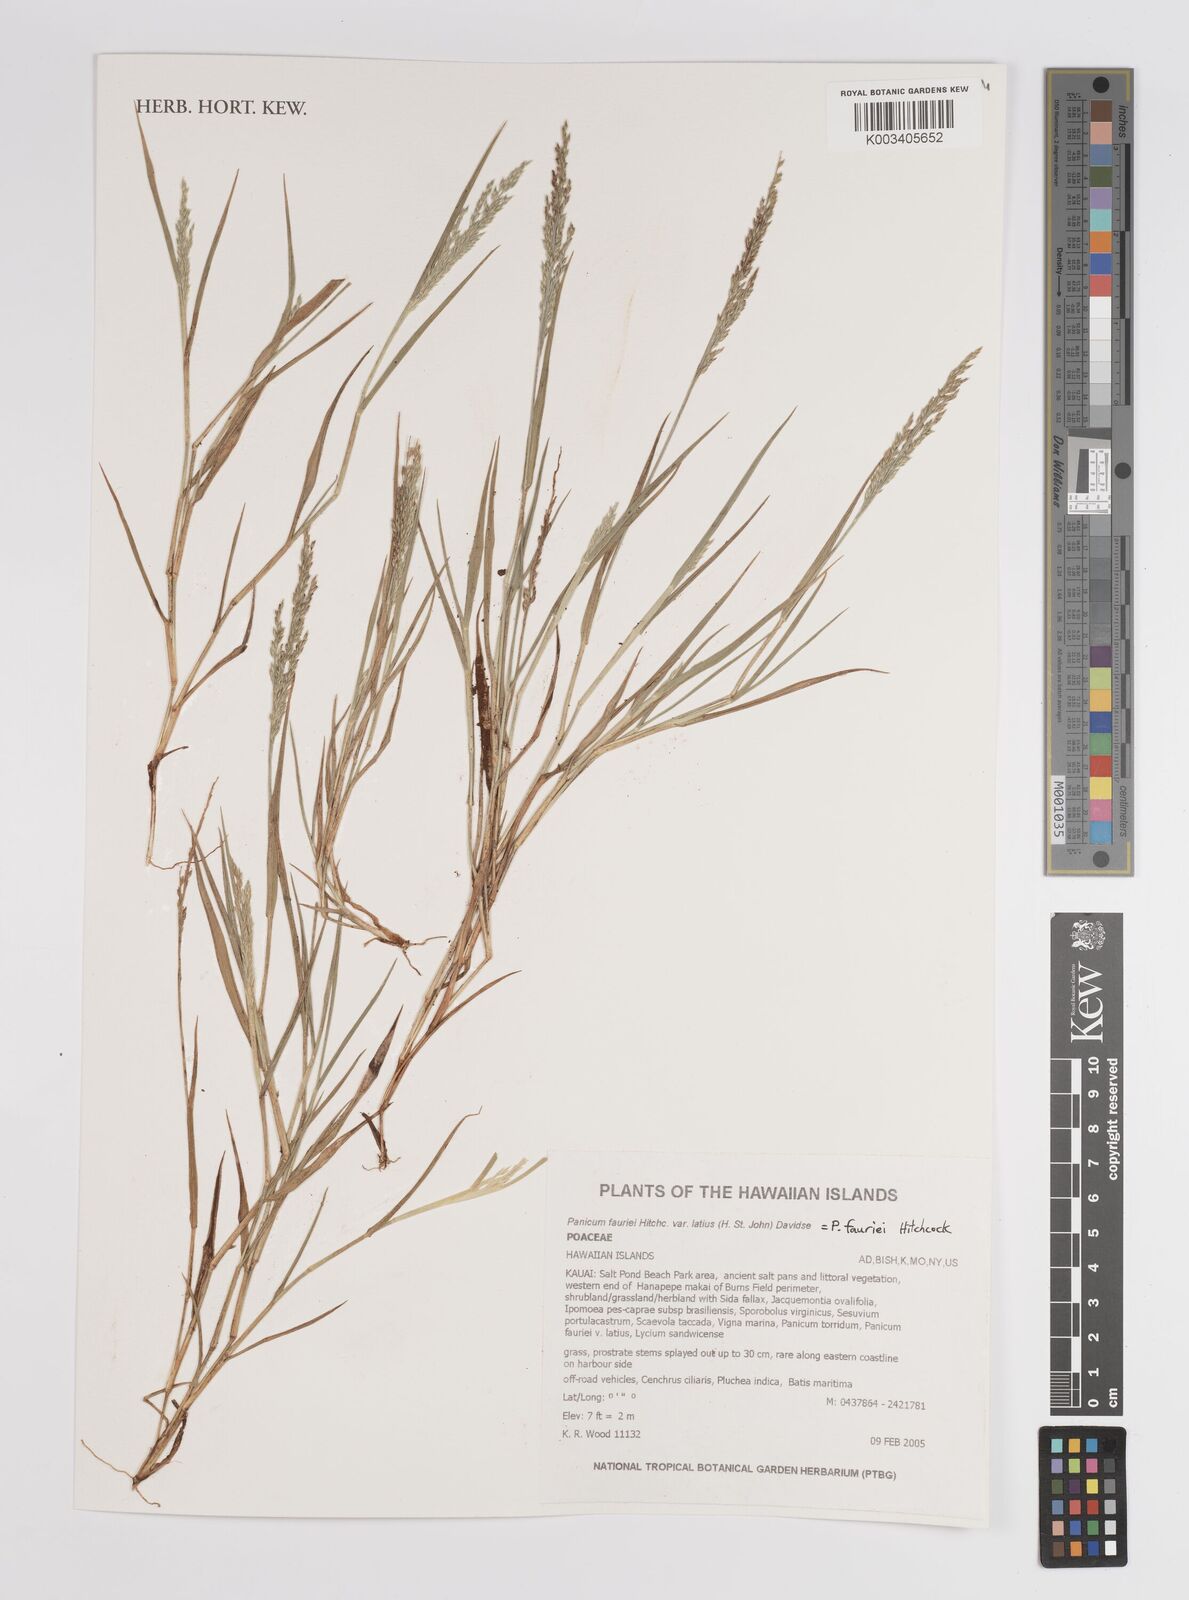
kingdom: Plantae
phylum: Tracheophyta
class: Liliopsida
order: Poales
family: Poaceae
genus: Panicum
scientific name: Panicum fauriei
